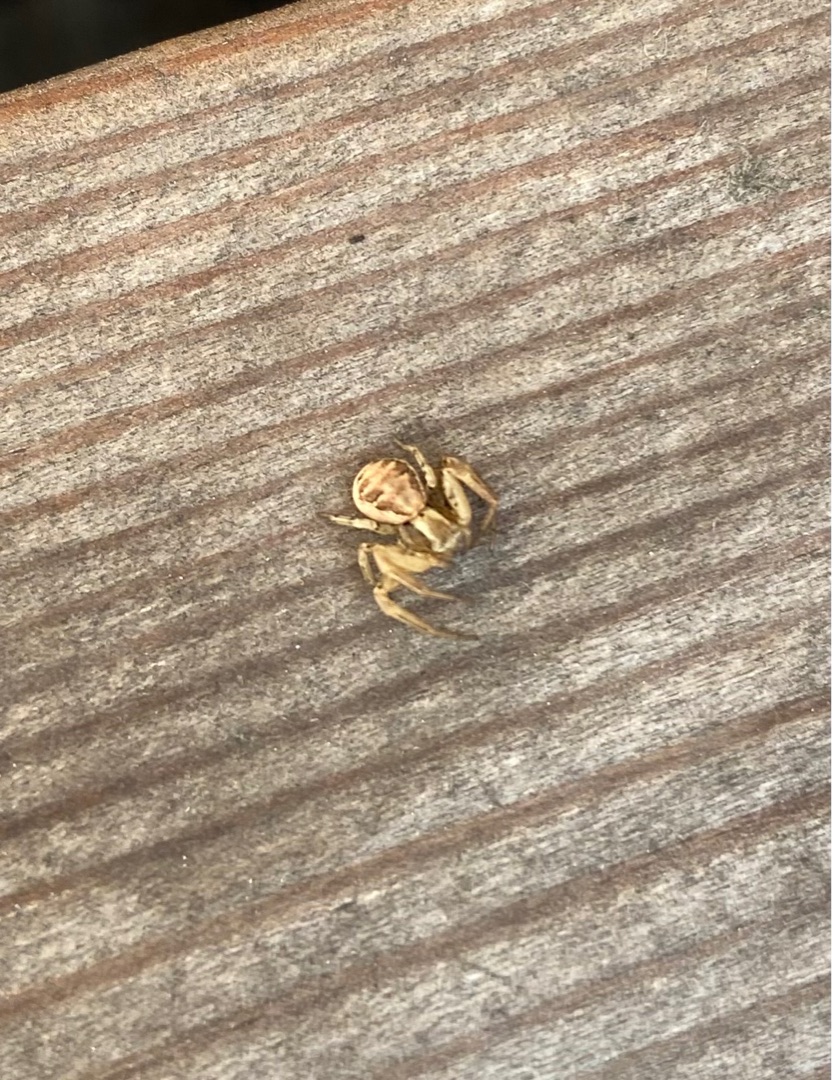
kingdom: Animalia
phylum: Arthropoda
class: Arachnida
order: Araneae
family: Thomisidae
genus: Xysticus
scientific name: Xysticus cristatus
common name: Almindelig krabbeedderkop
